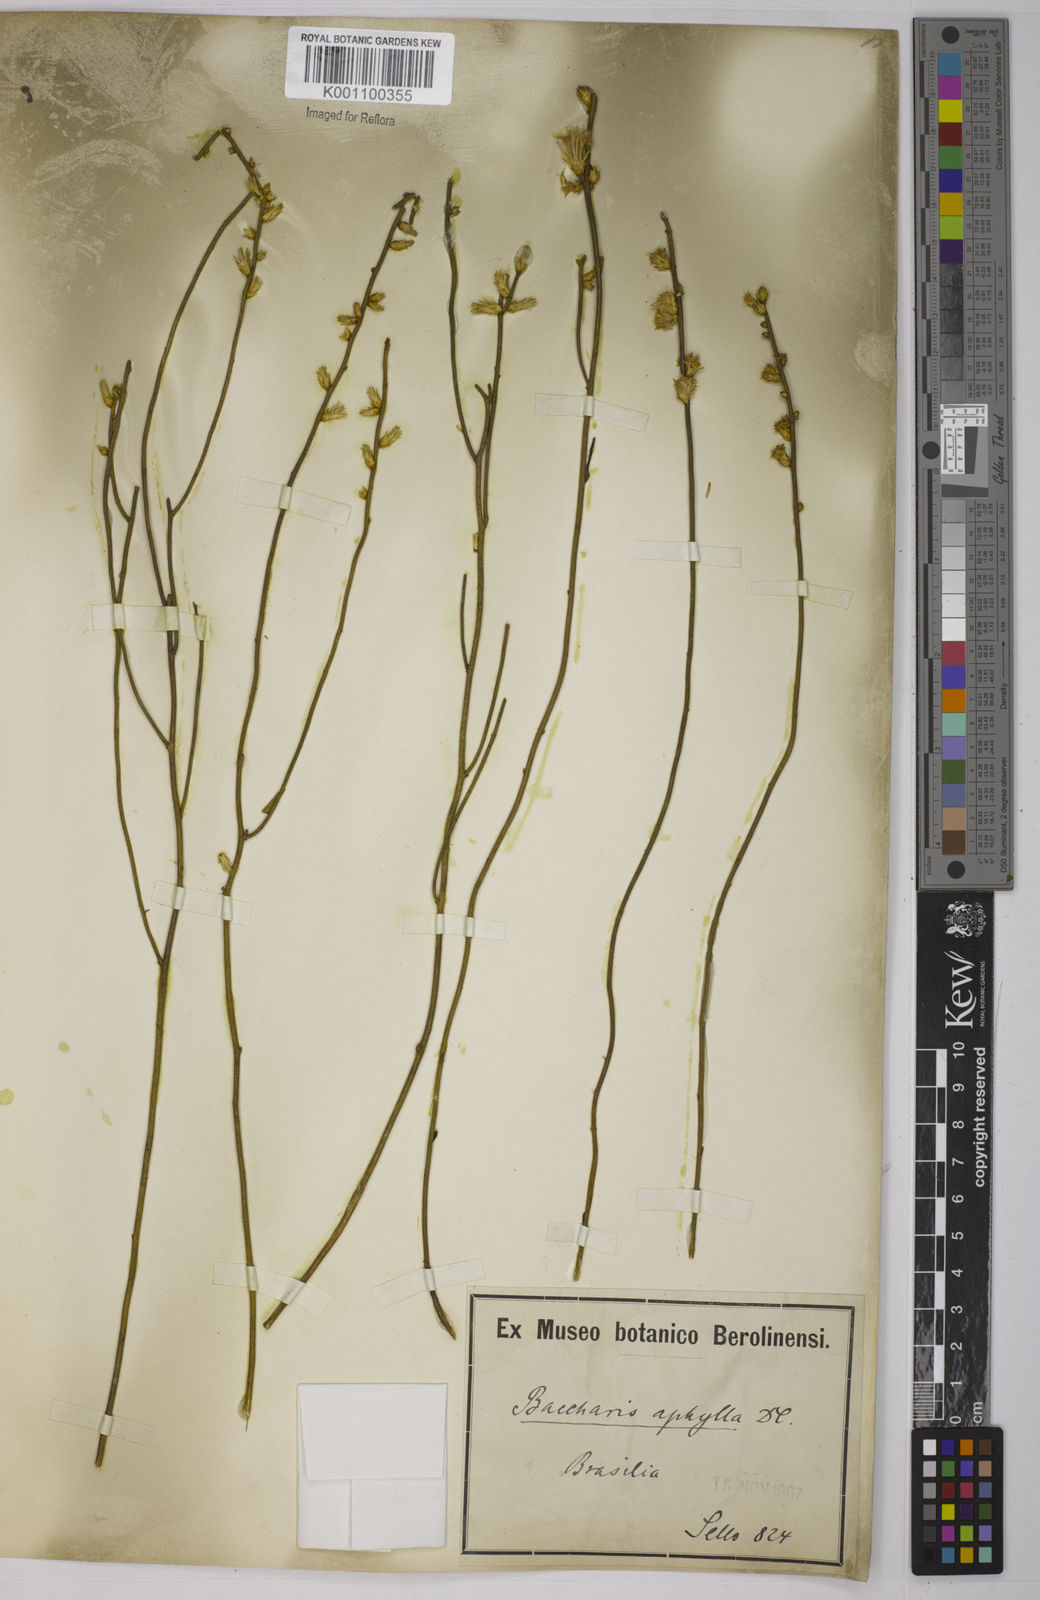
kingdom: Plantae
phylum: Tracheophyta
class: Magnoliopsida
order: Asterales
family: Asteraceae
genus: Baccharis
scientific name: Baccharis aphylla
